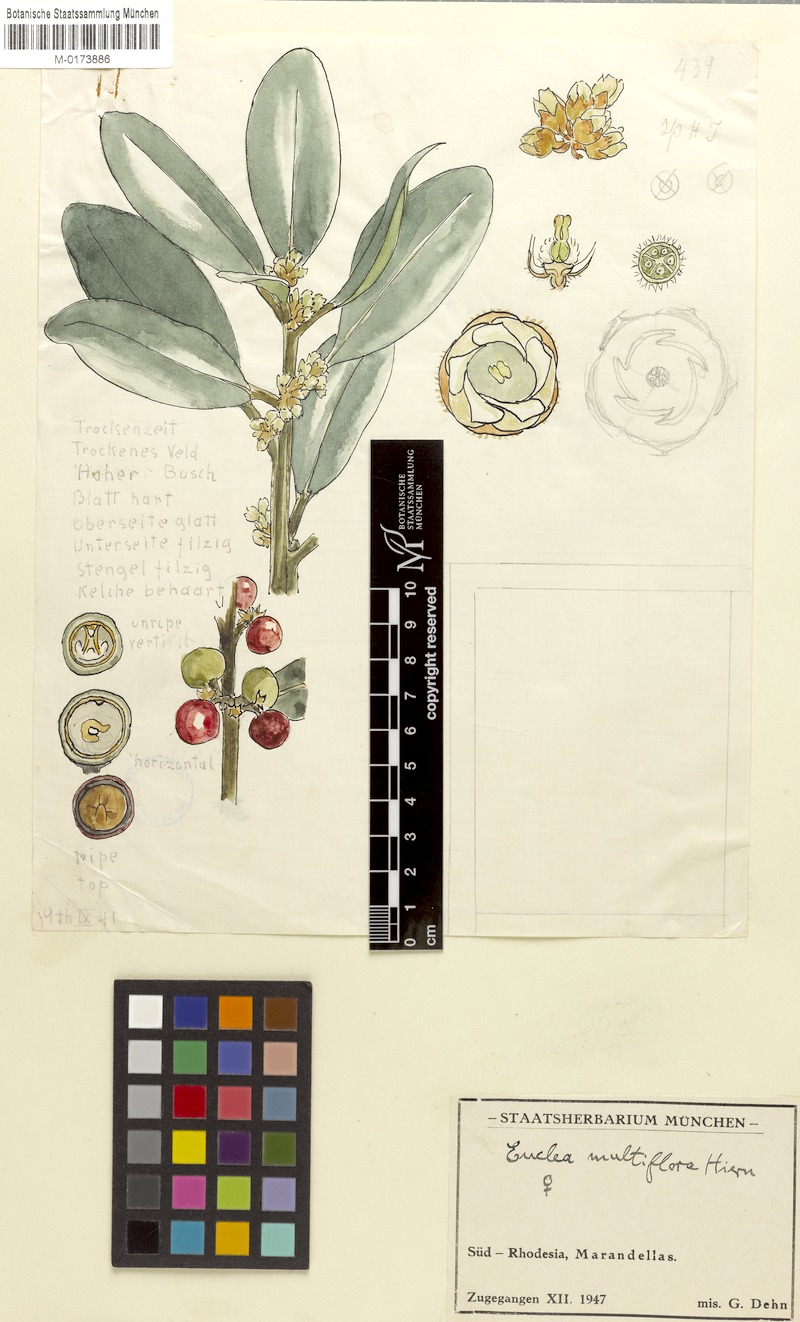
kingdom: Plantae
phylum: Tracheophyta
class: Magnoliopsida
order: Ericales
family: Ebenaceae
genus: Euclea
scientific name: Euclea natalensis
